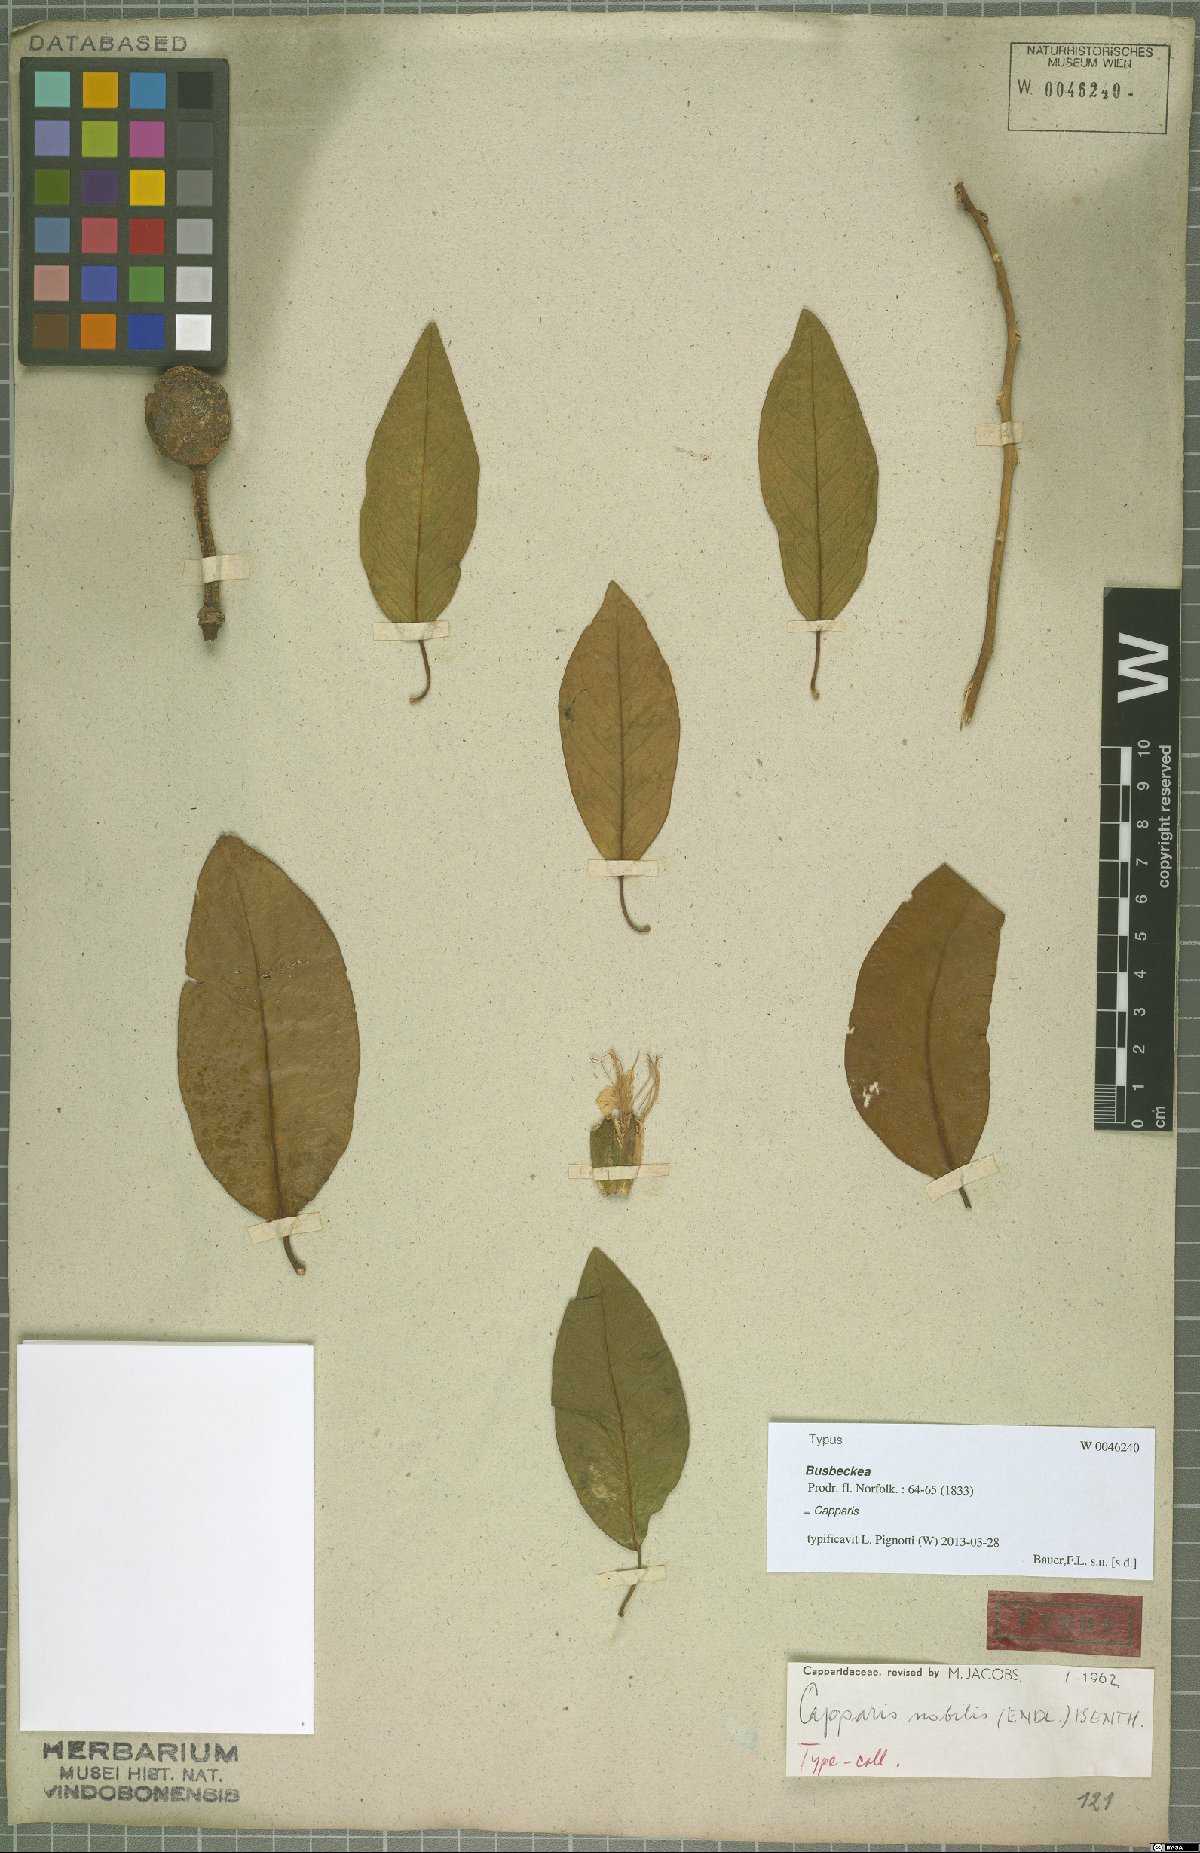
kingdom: Plantae
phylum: Tracheophyta
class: Magnoliopsida
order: Brassicales
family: Capparaceae
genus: Capparis
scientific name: Capparis nobilis
